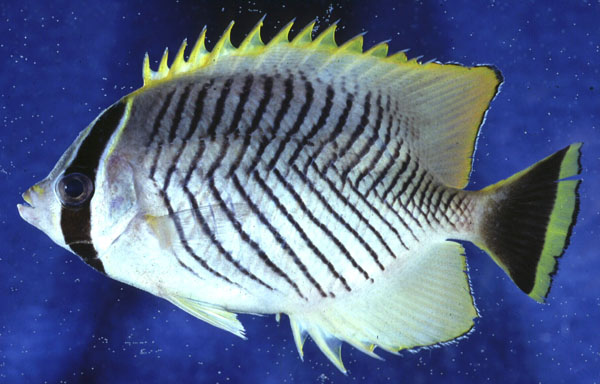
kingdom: Animalia
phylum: Chordata
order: Perciformes
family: Chaetodontidae
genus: Chaetodon
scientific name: Chaetodon trifascialis
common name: Chevroned butterflyfish
